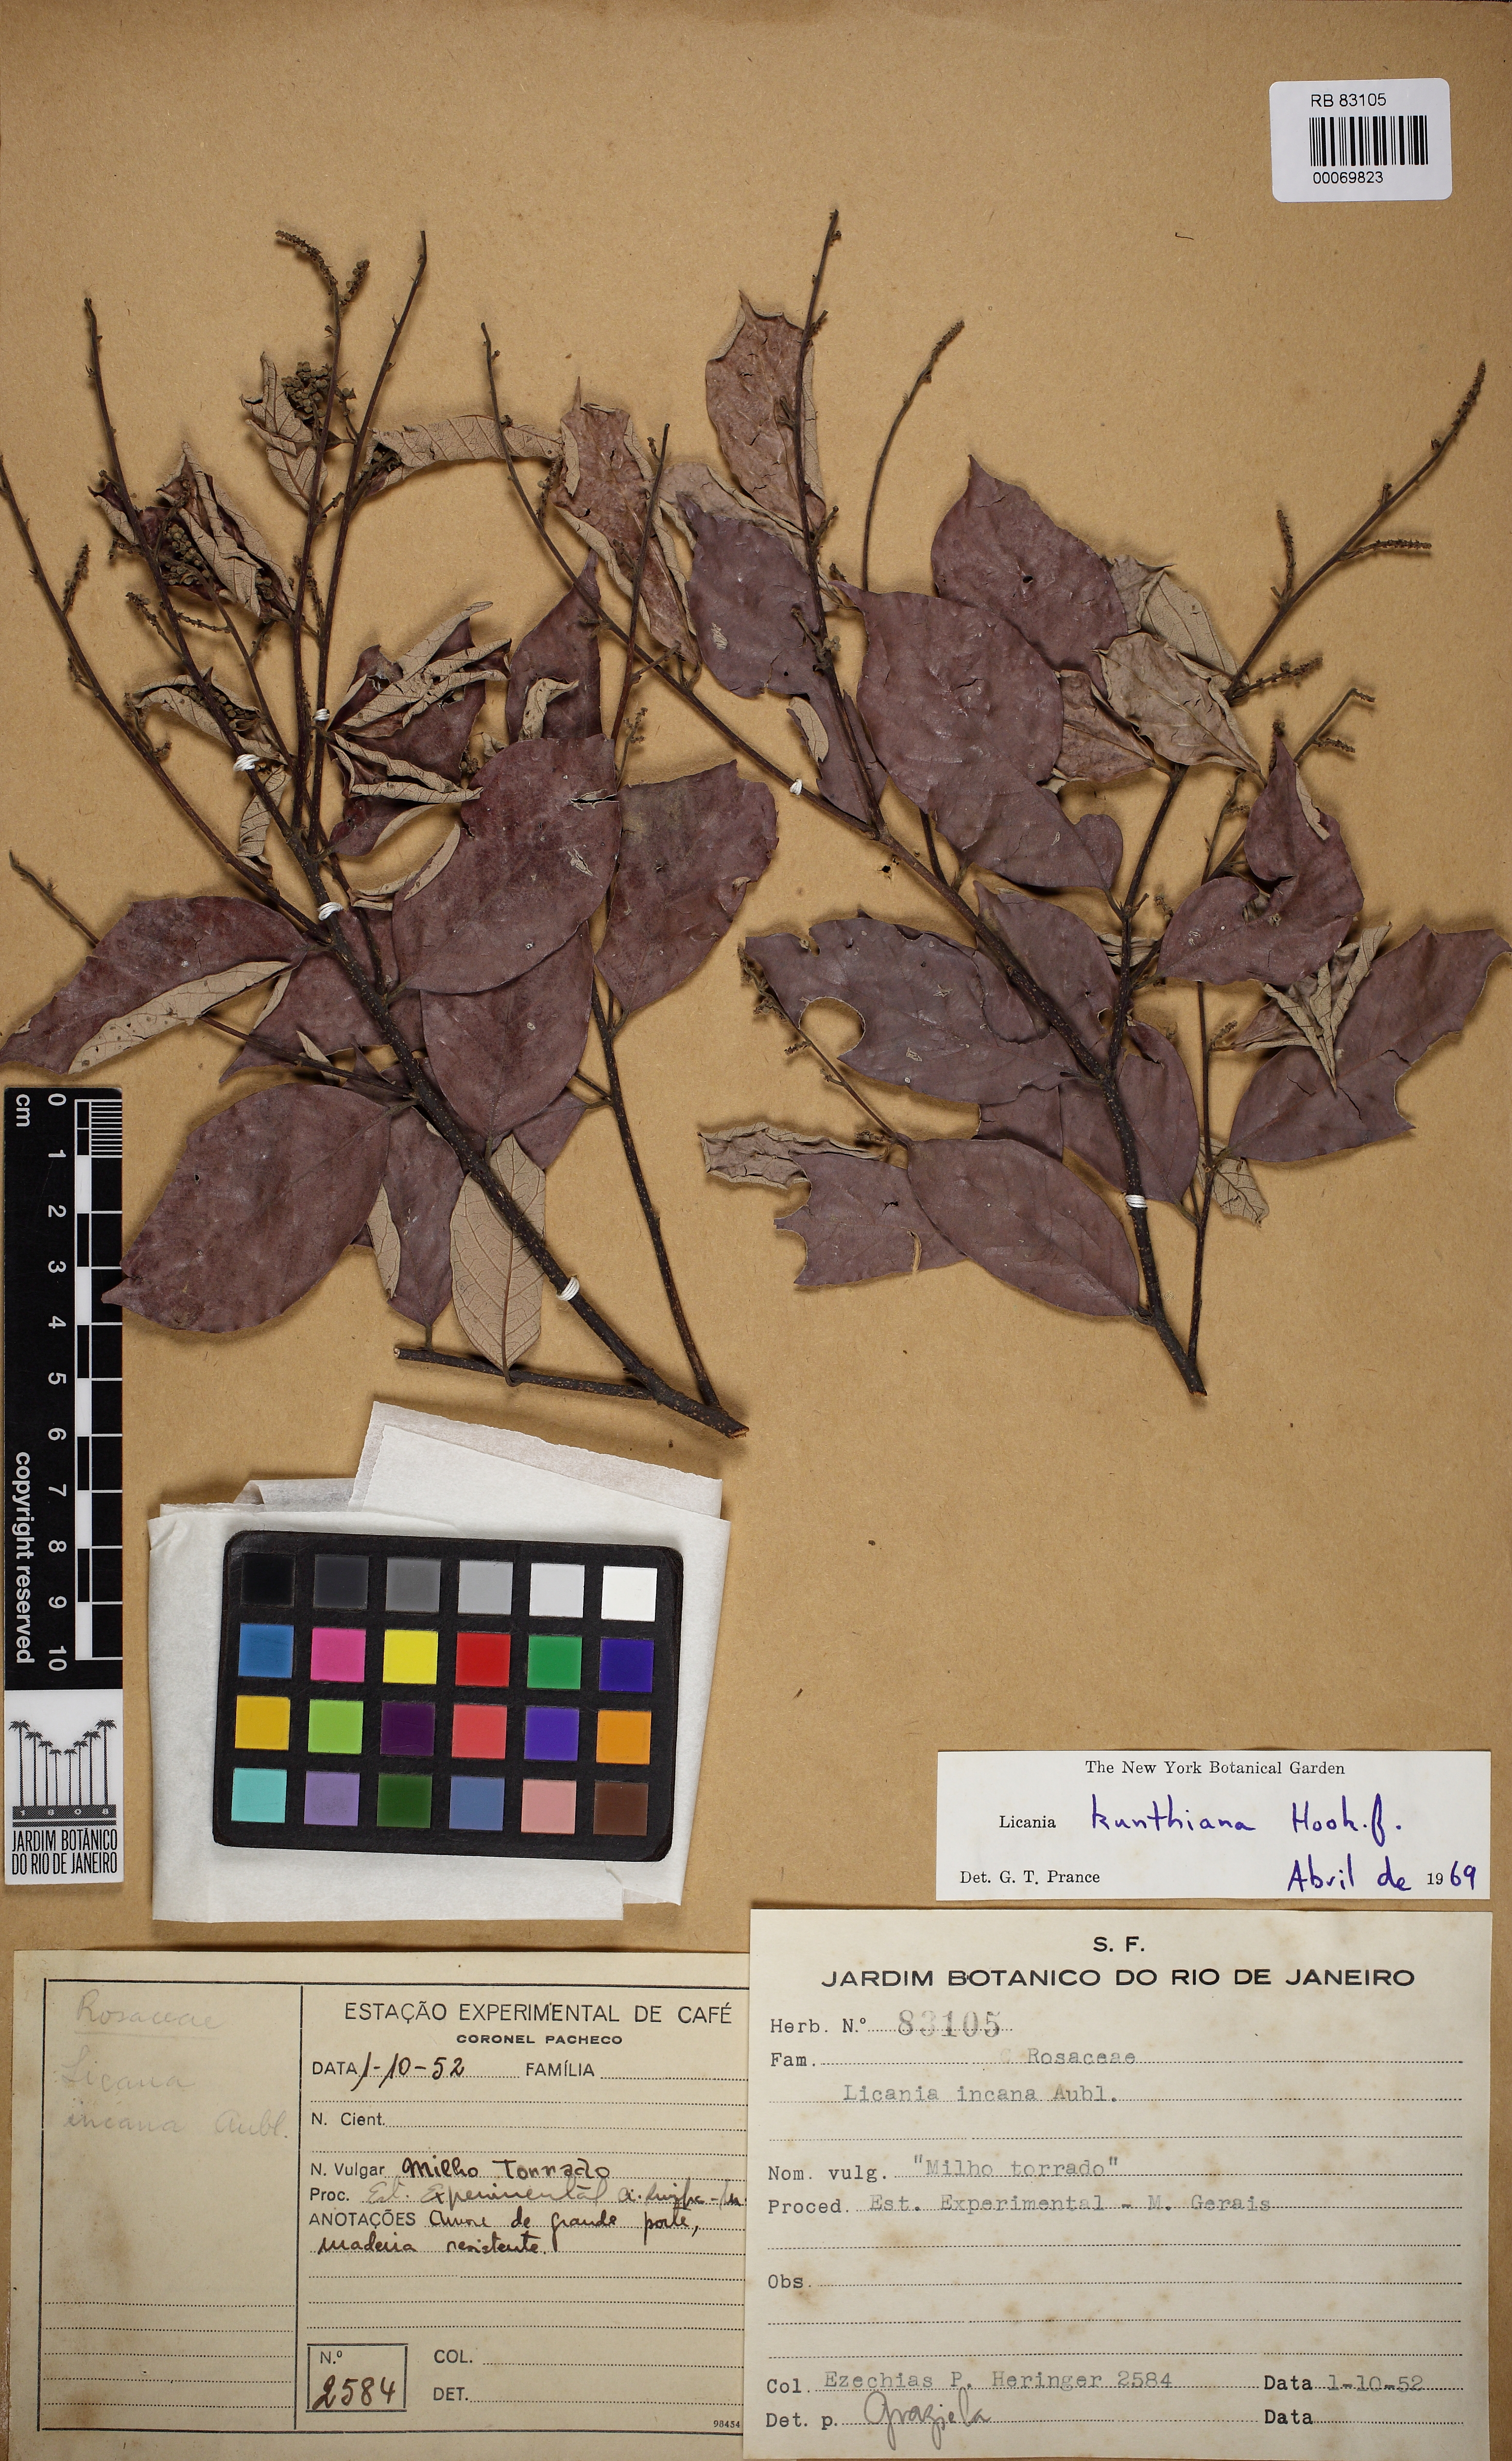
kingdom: Plantae
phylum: Tracheophyta
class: Magnoliopsida
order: Malpighiales
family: Chrysobalanaceae
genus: Licania
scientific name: Licania kunthiana
